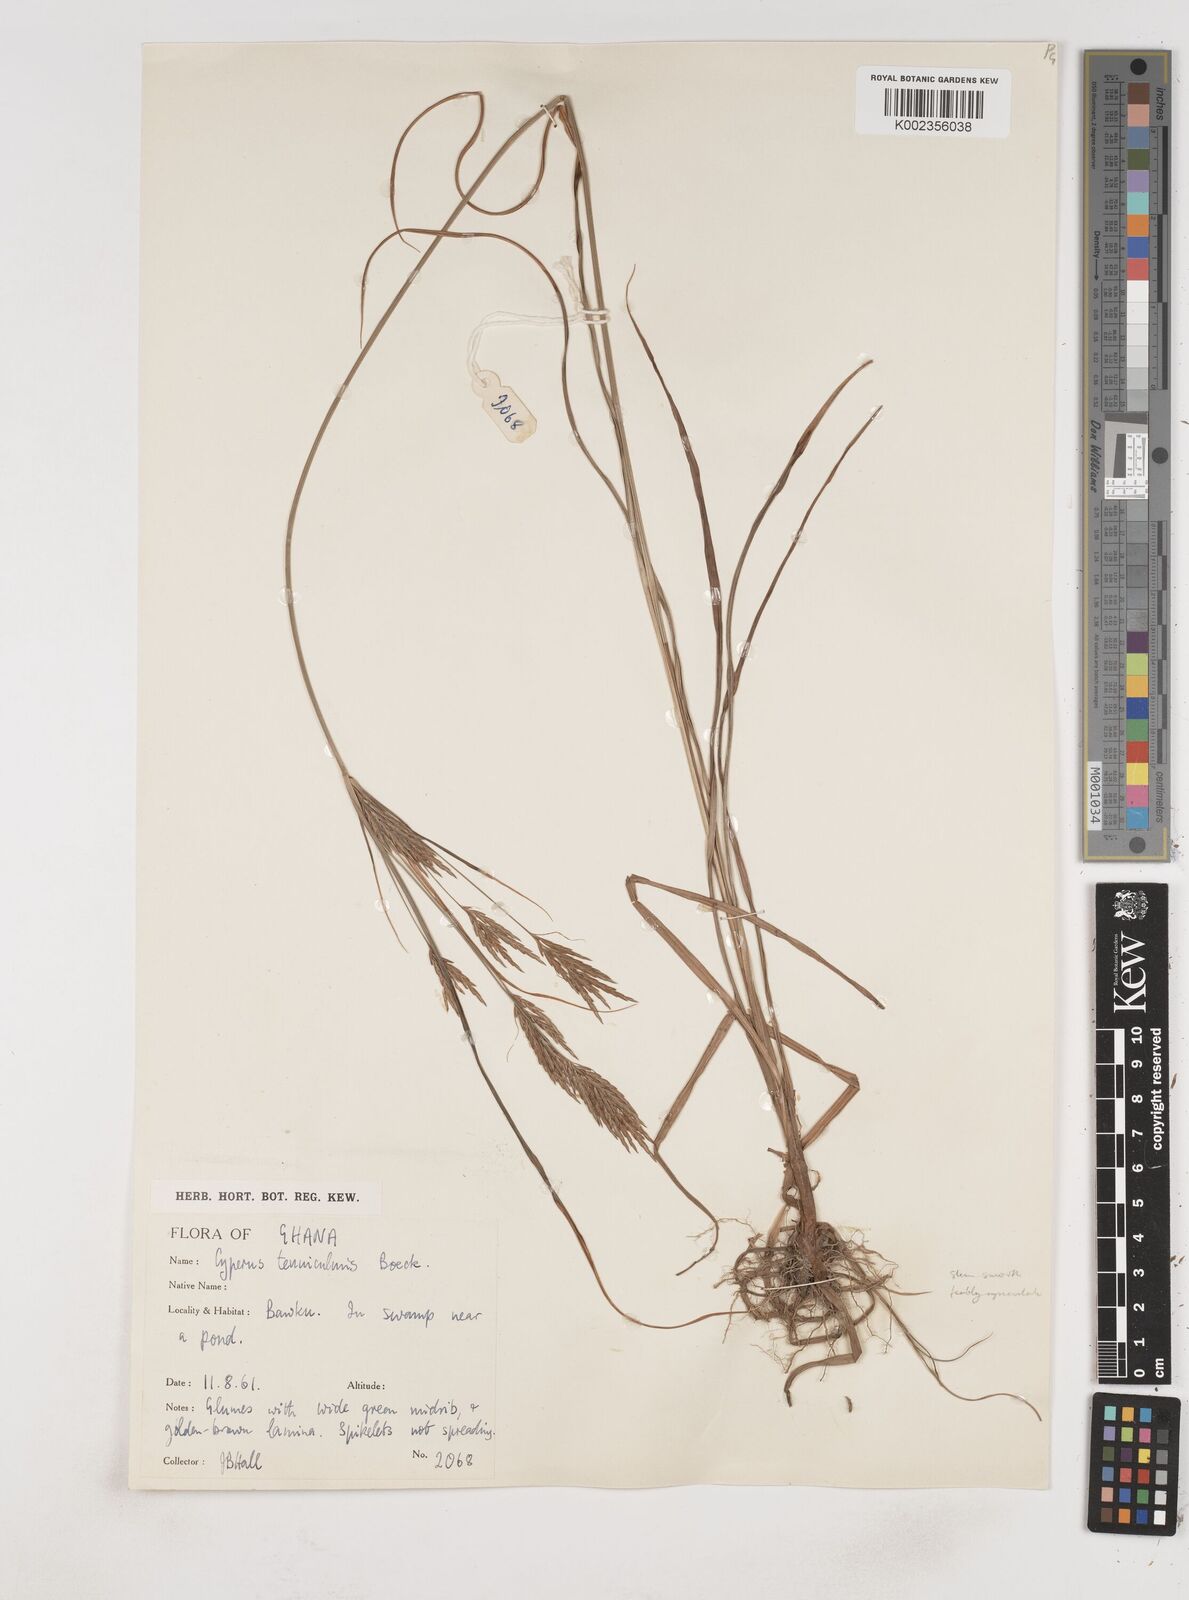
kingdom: Plantae
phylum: Tracheophyta
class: Liliopsida
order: Poales
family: Cyperaceae
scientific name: Cyperaceae
